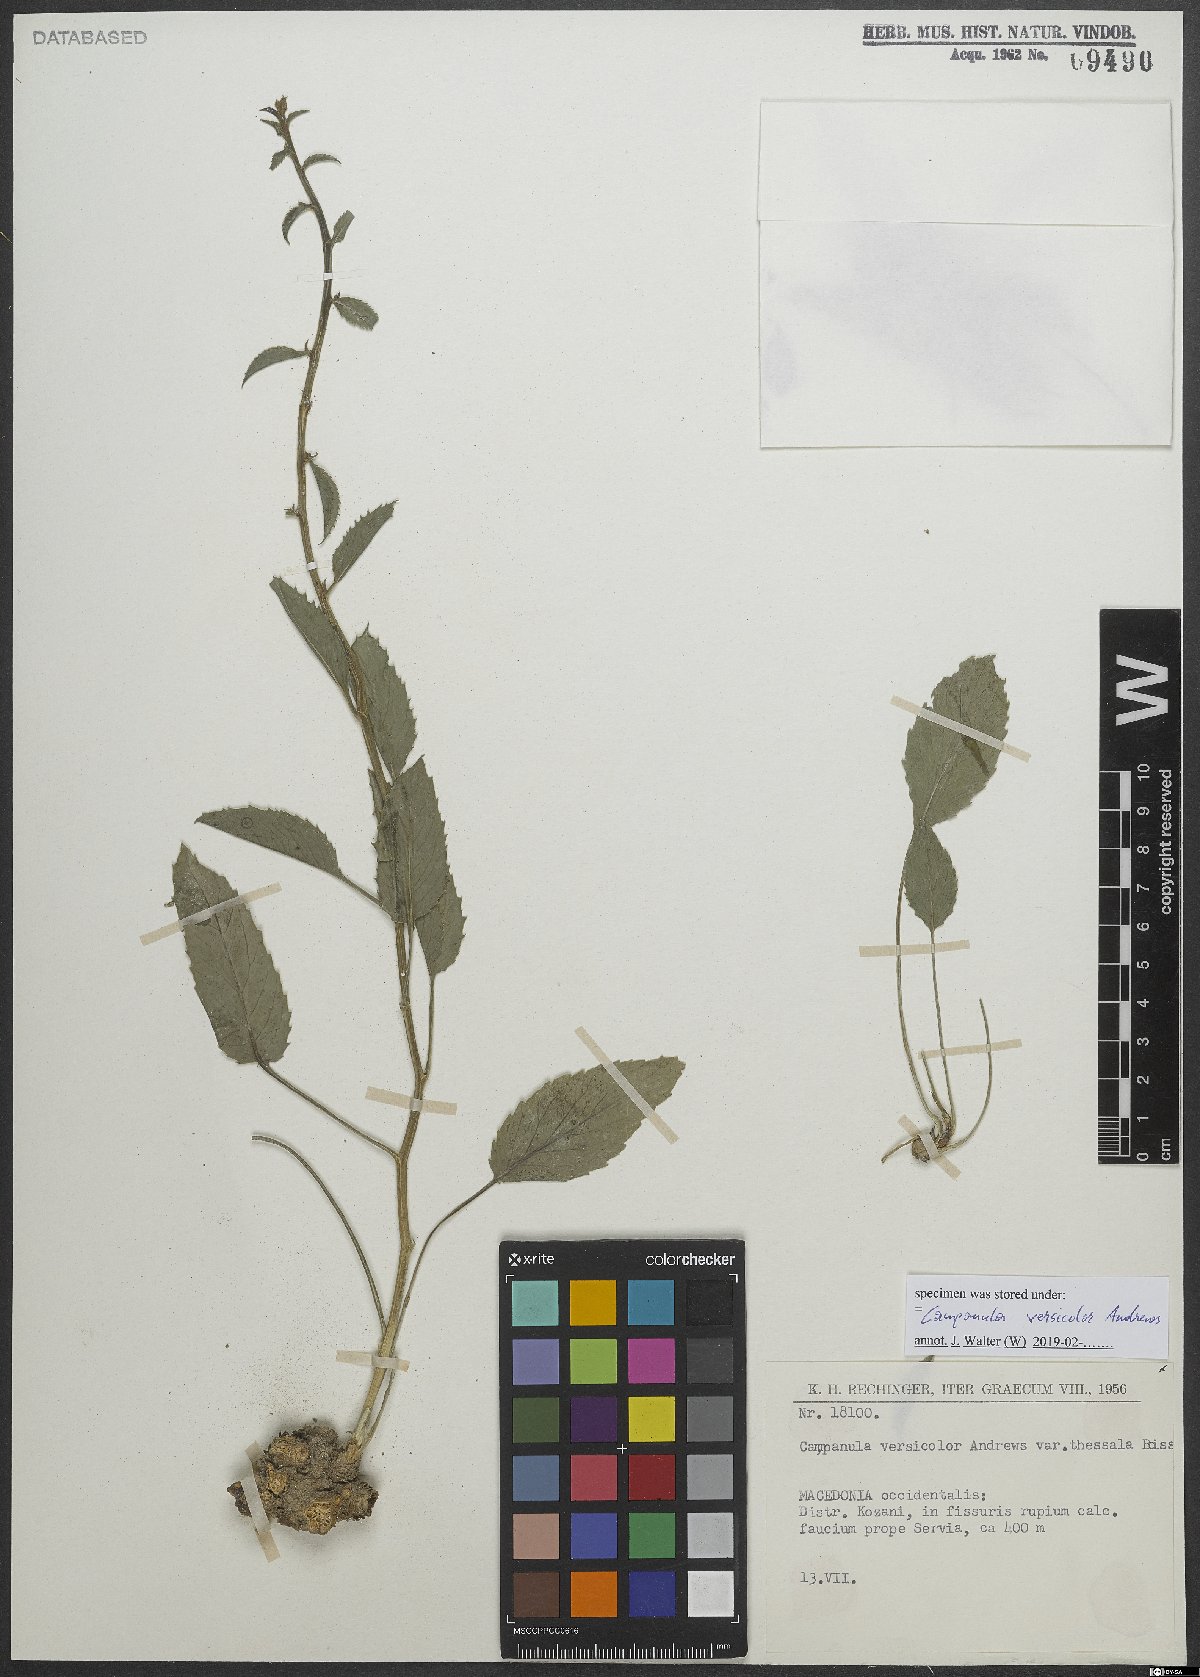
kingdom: Plantae
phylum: Tracheophyta
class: Magnoliopsida
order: Asterales
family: Campanulaceae
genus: Campanula
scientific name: Campanula versicolor
